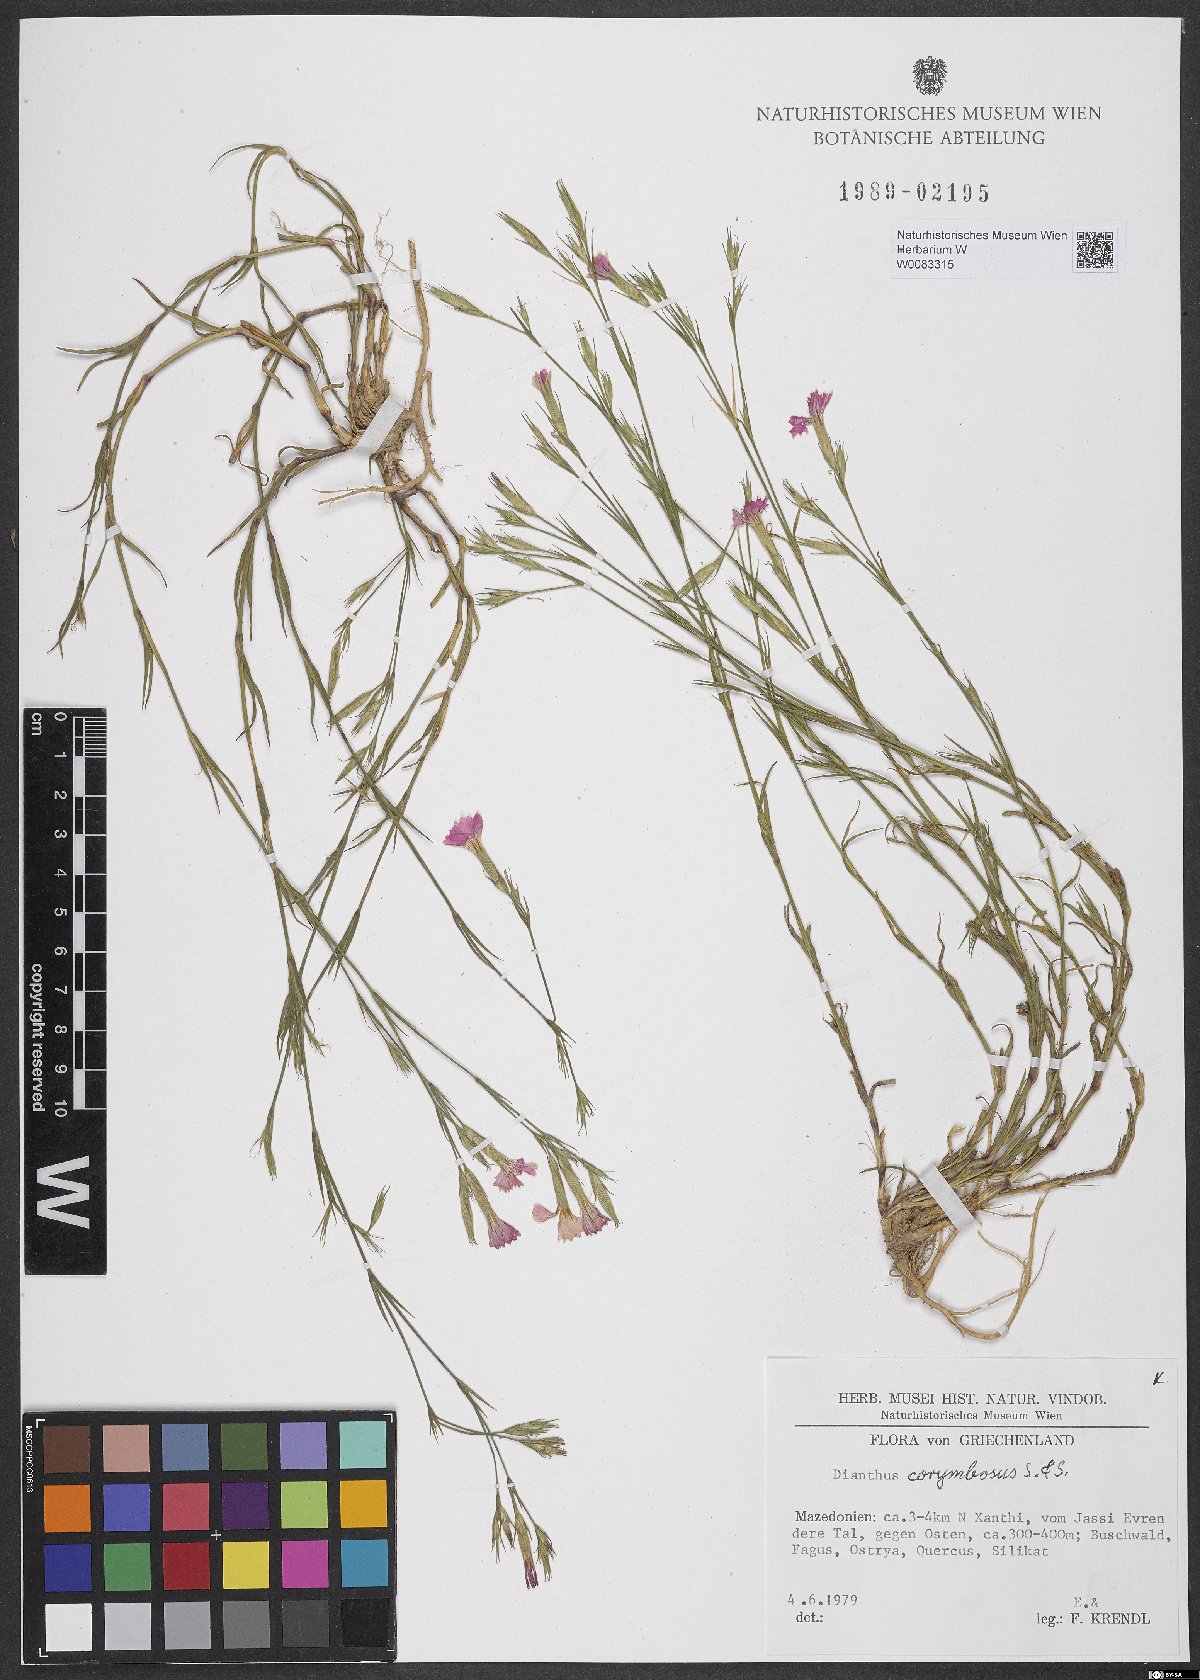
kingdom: Plantae
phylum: Tracheophyta
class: Magnoliopsida
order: Caryophyllales
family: Caryophyllaceae
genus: Dianthus
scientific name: Dianthus corymbosus
